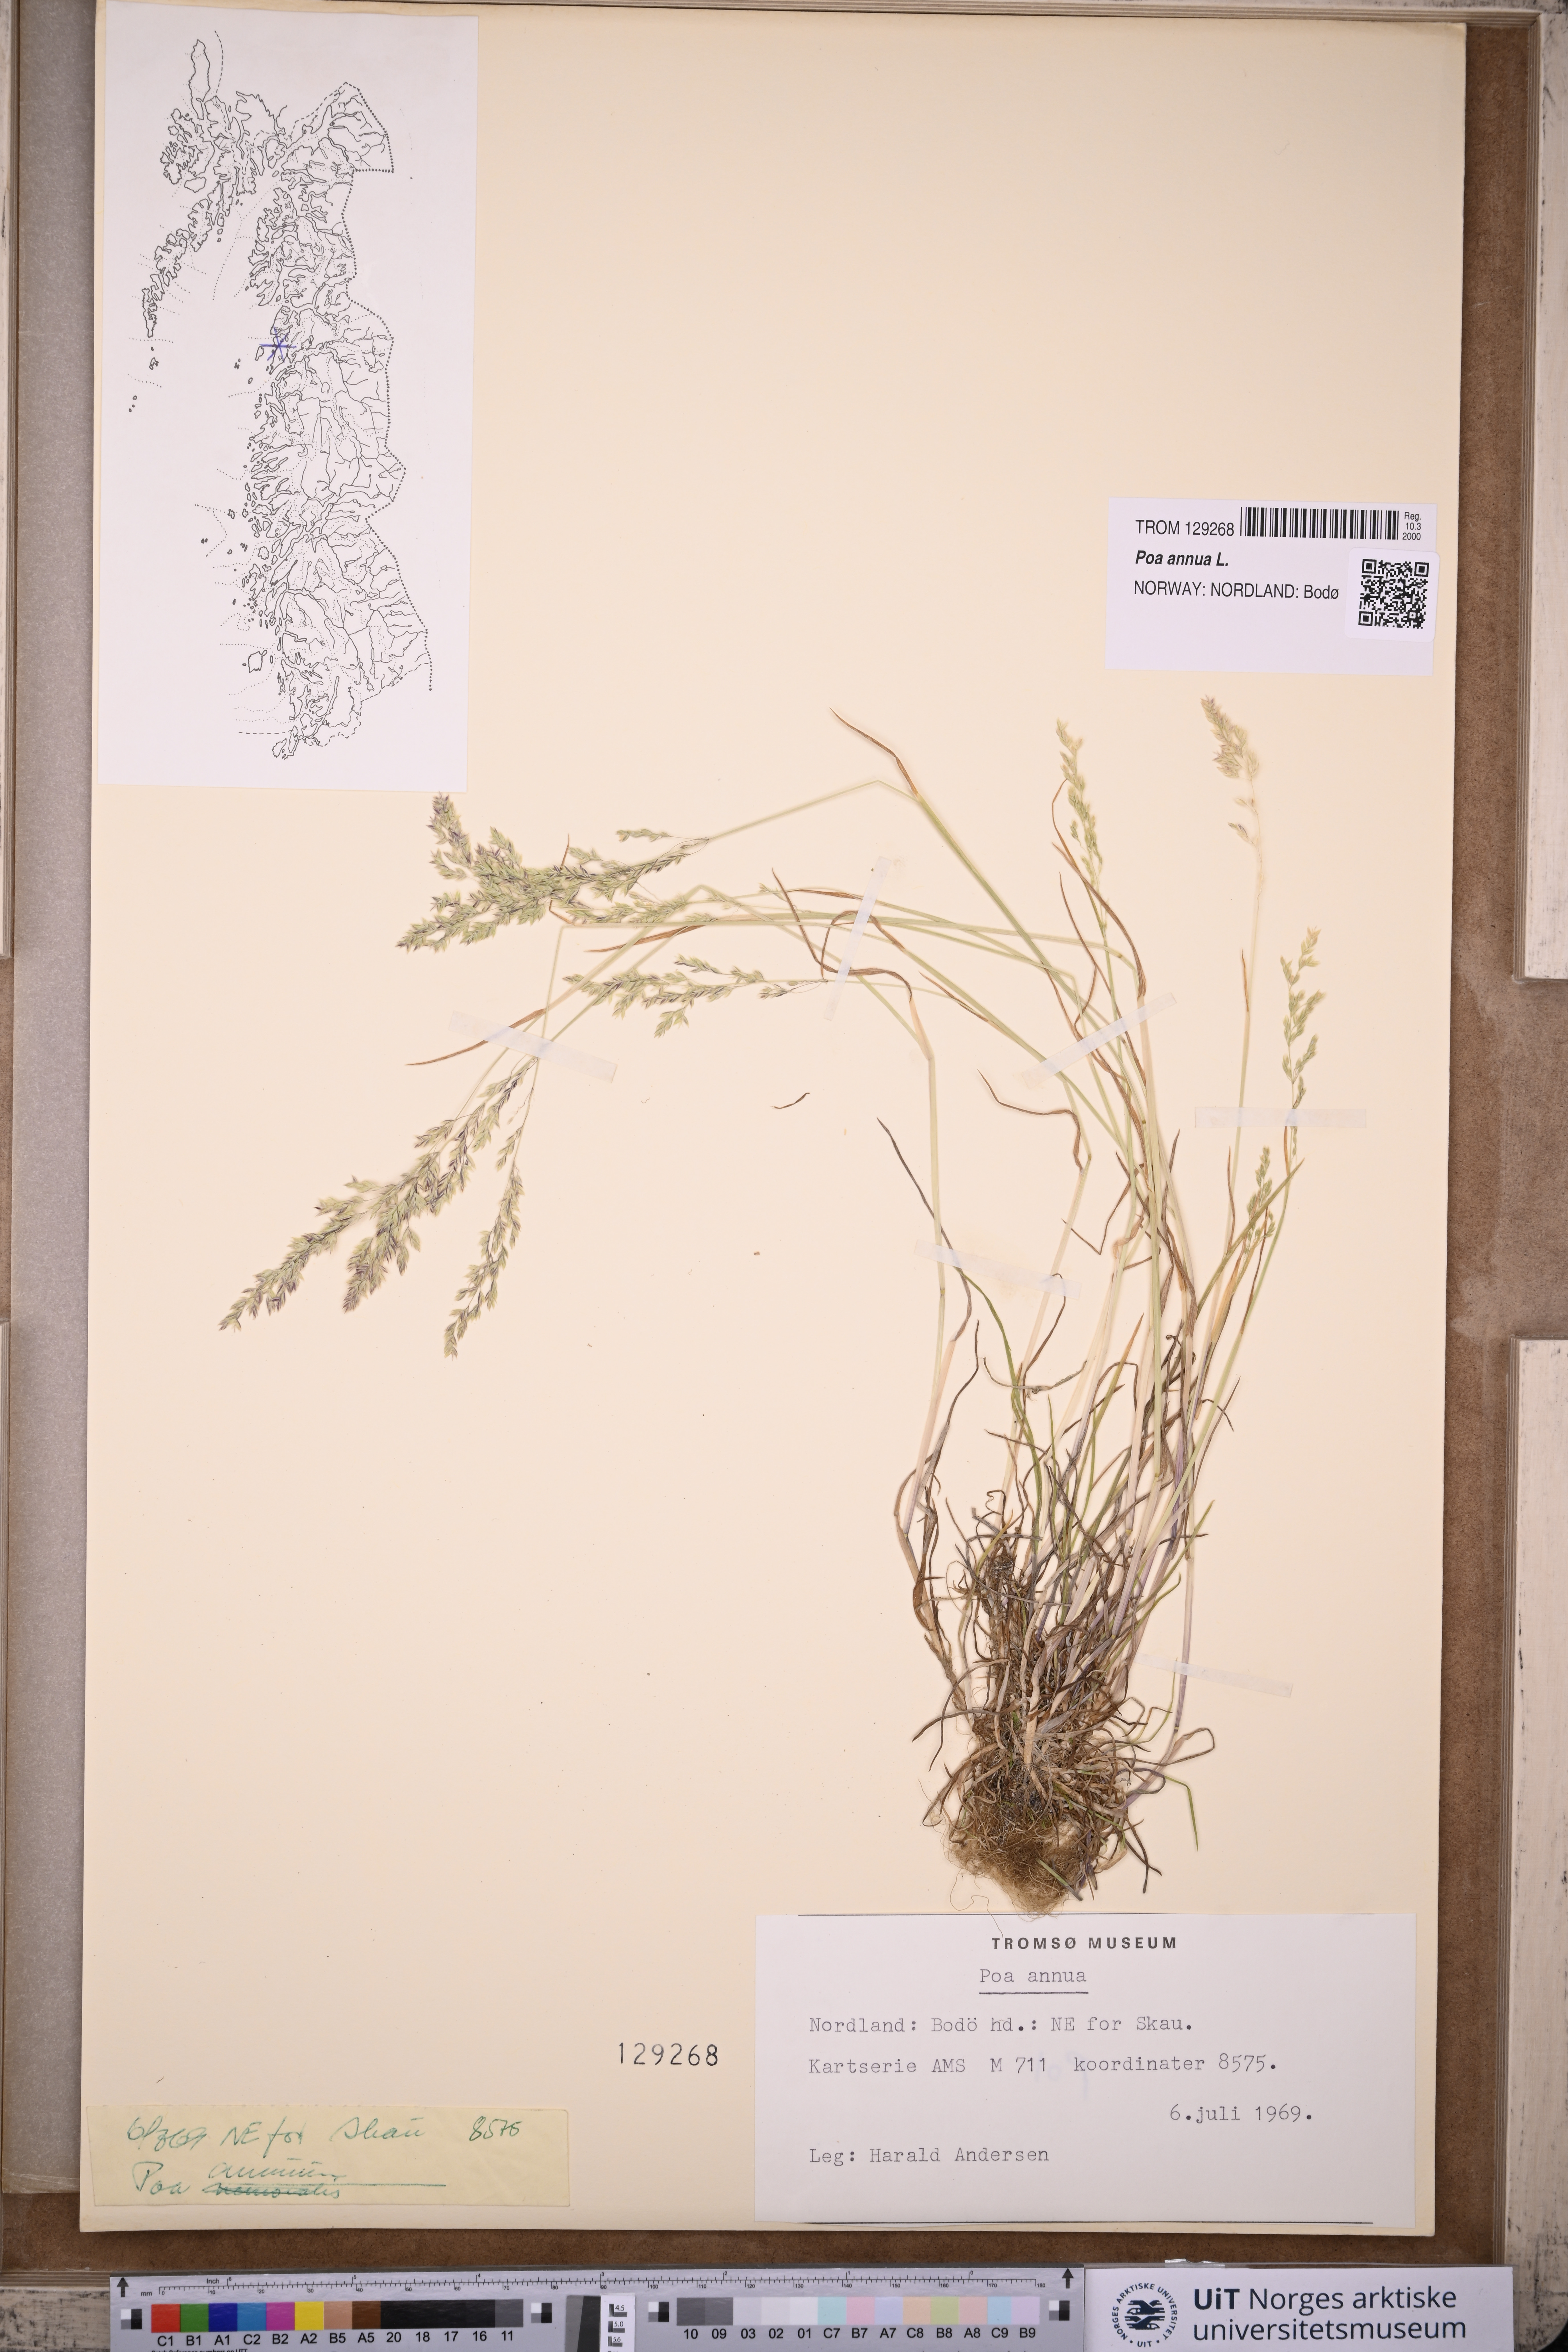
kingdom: Plantae
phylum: Tracheophyta
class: Liliopsida
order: Poales
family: Poaceae
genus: Poa
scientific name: Poa annua
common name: Annual bluegrass
